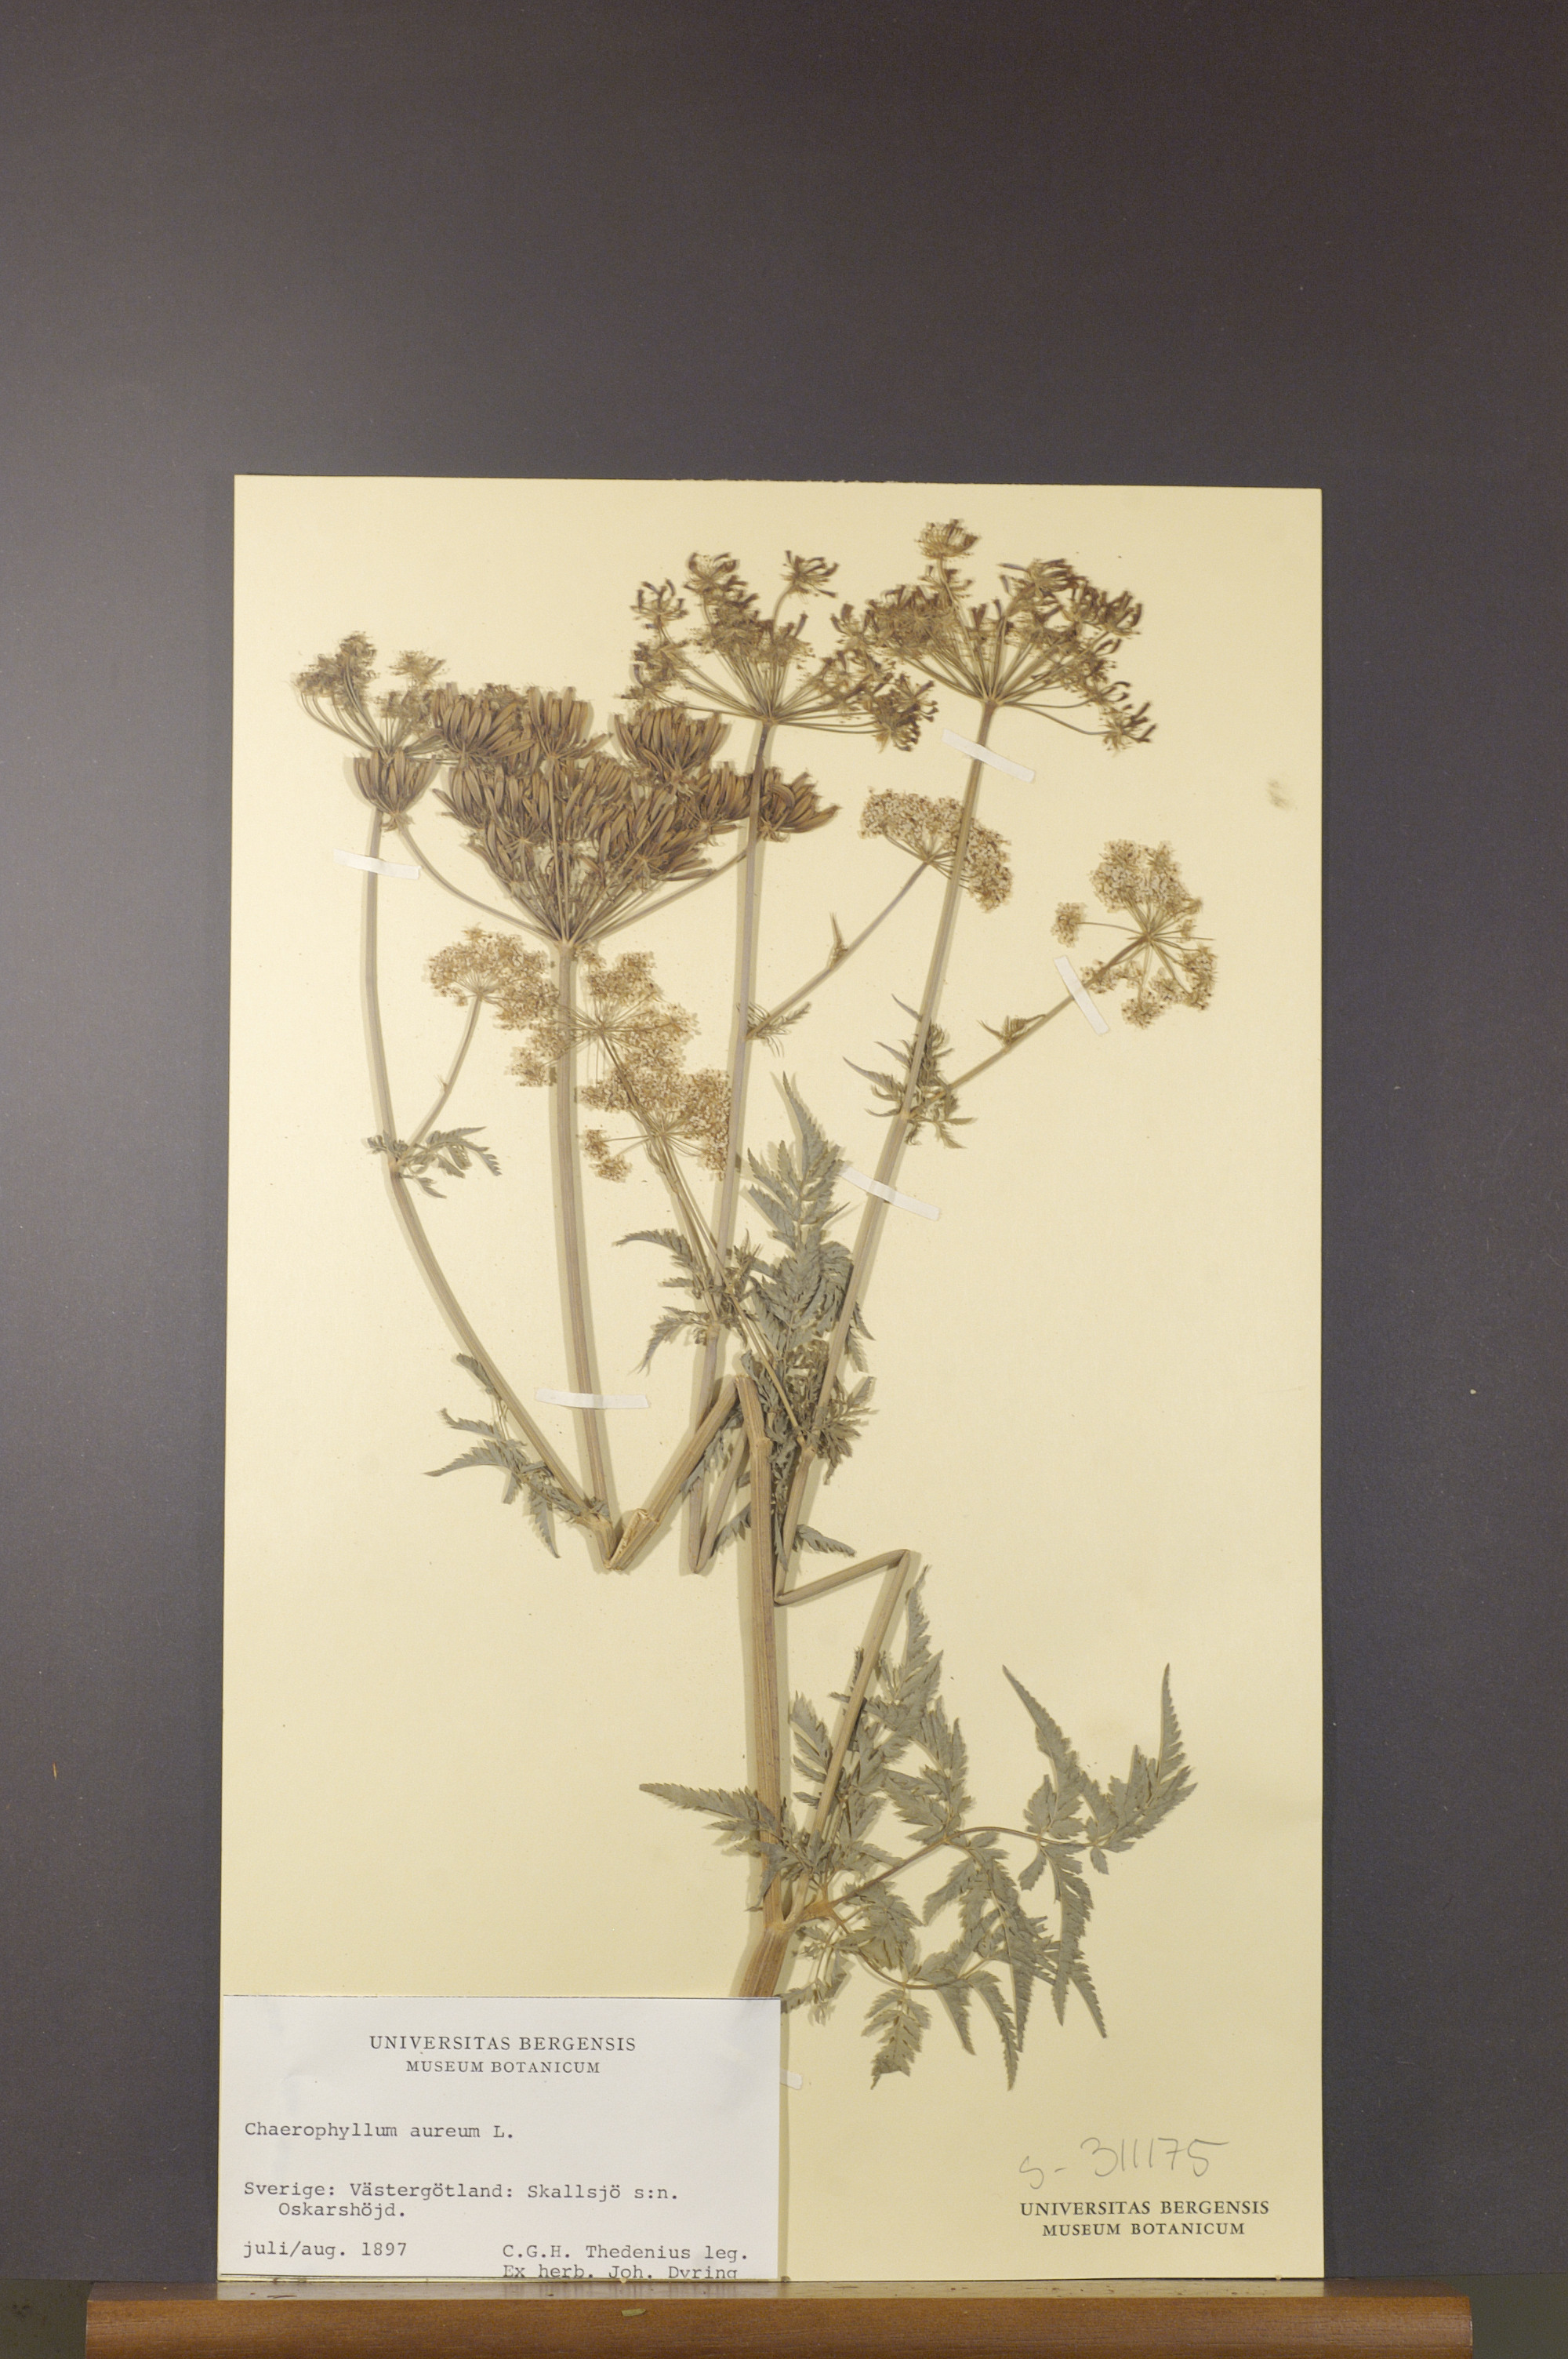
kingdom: Plantae
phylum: Tracheophyta
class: Magnoliopsida
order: Apiales
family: Apiaceae
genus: Chaerophyllum
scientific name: Chaerophyllum aureum
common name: Golden chervil
